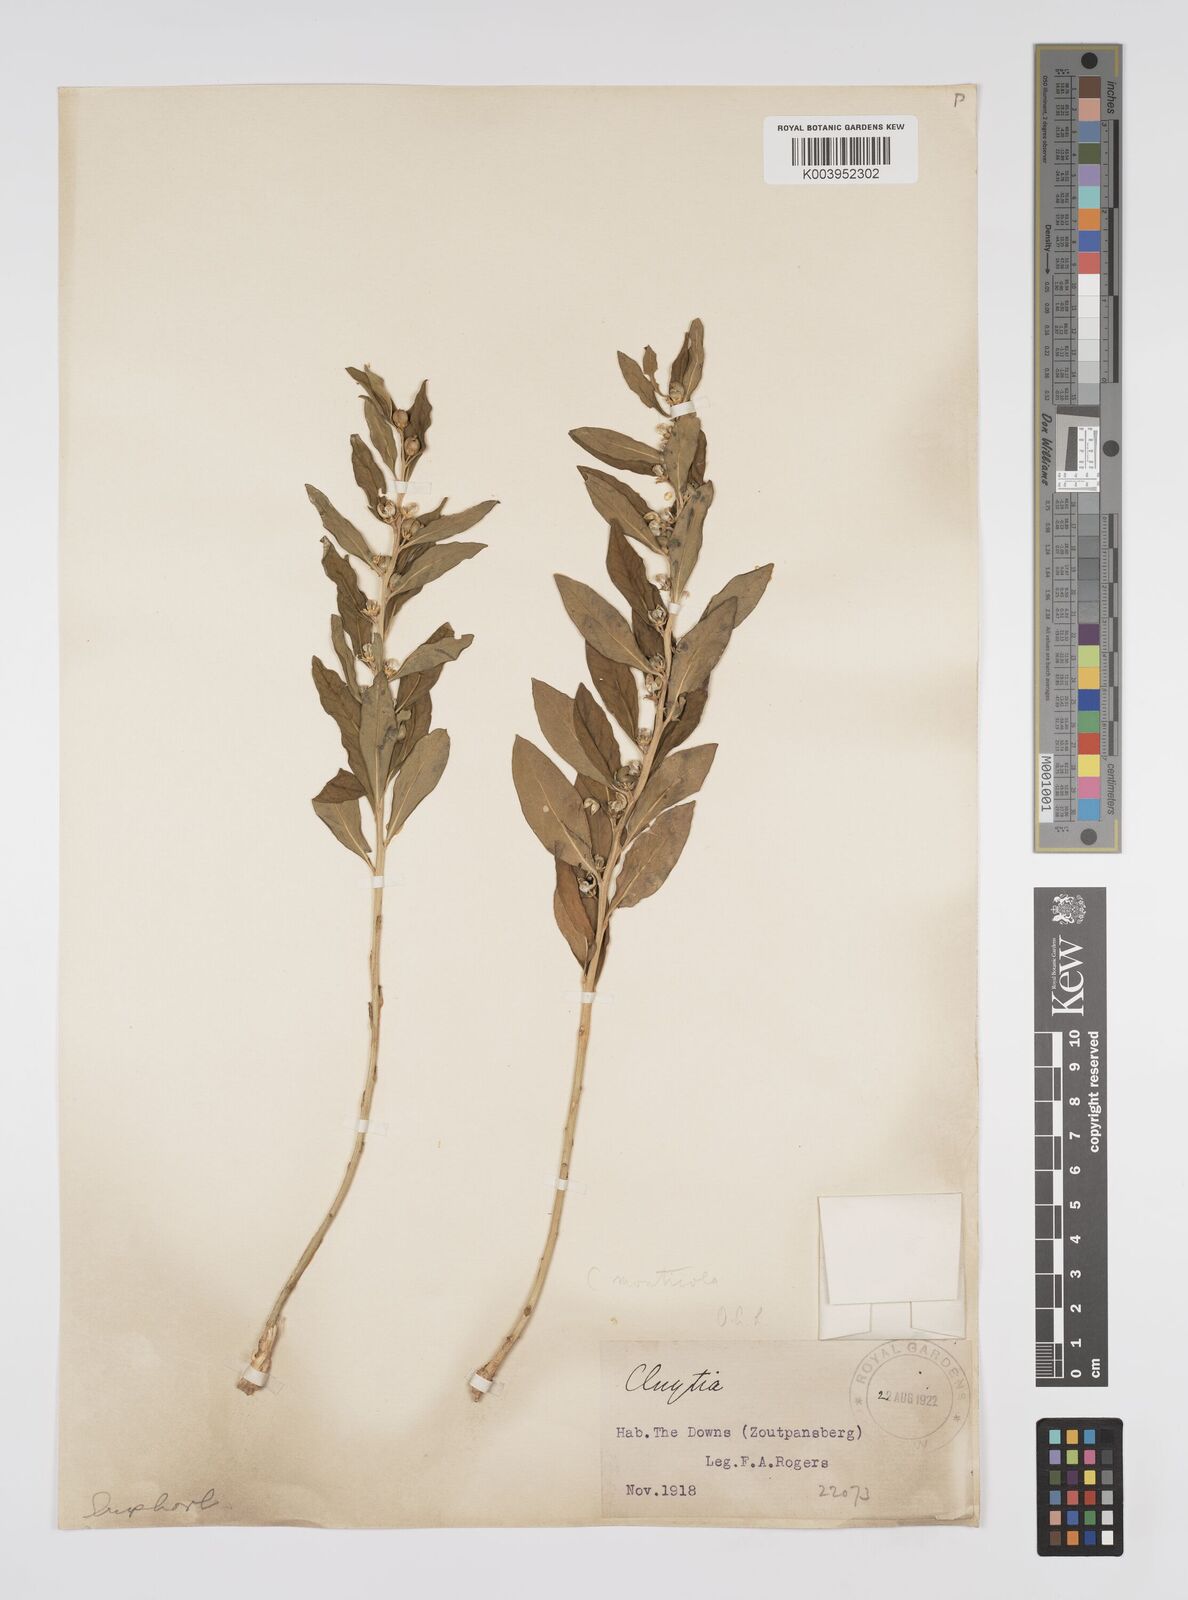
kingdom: Plantae
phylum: Tracheophyta
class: Magnoliopsida
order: Malpighiales
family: Peraceae
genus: Clutia
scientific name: Clutia
